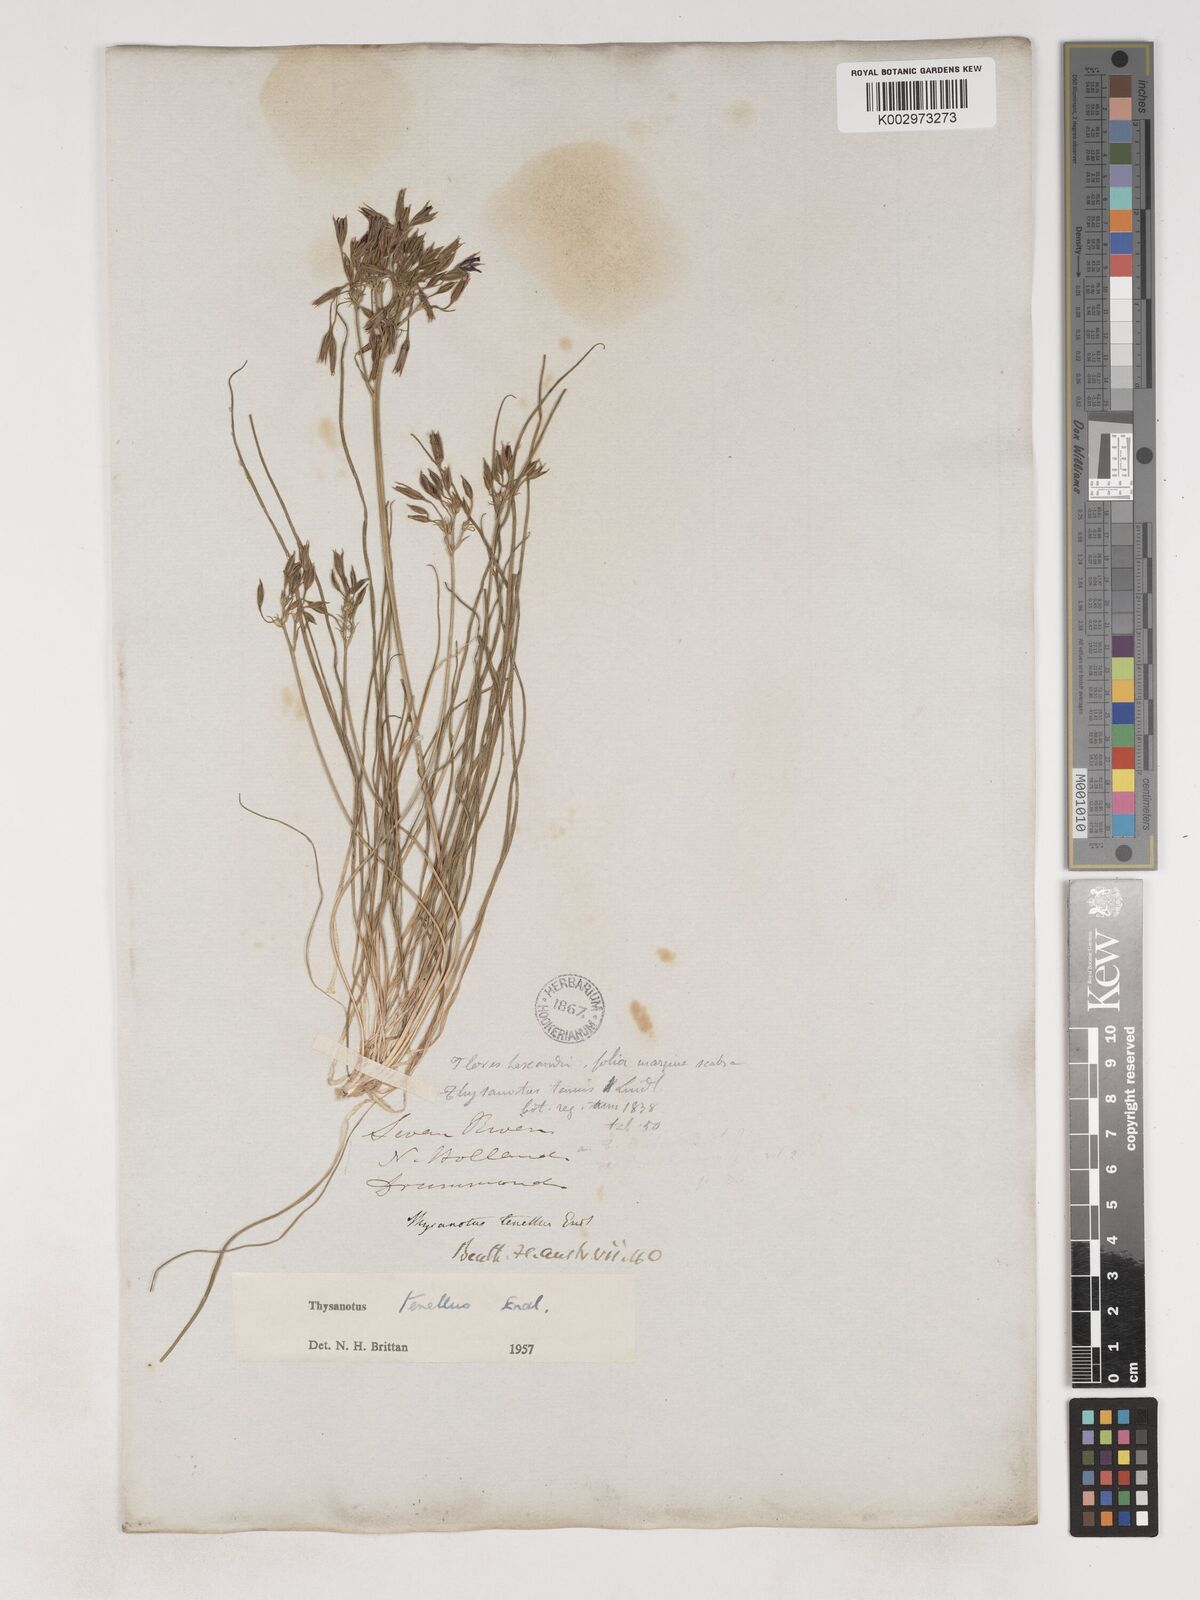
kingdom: Plantae
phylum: Tracheophyta
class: Liliopsida
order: Asparagales
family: Asparagaceae
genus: Thysanotus
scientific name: Thysanotus tenellus
